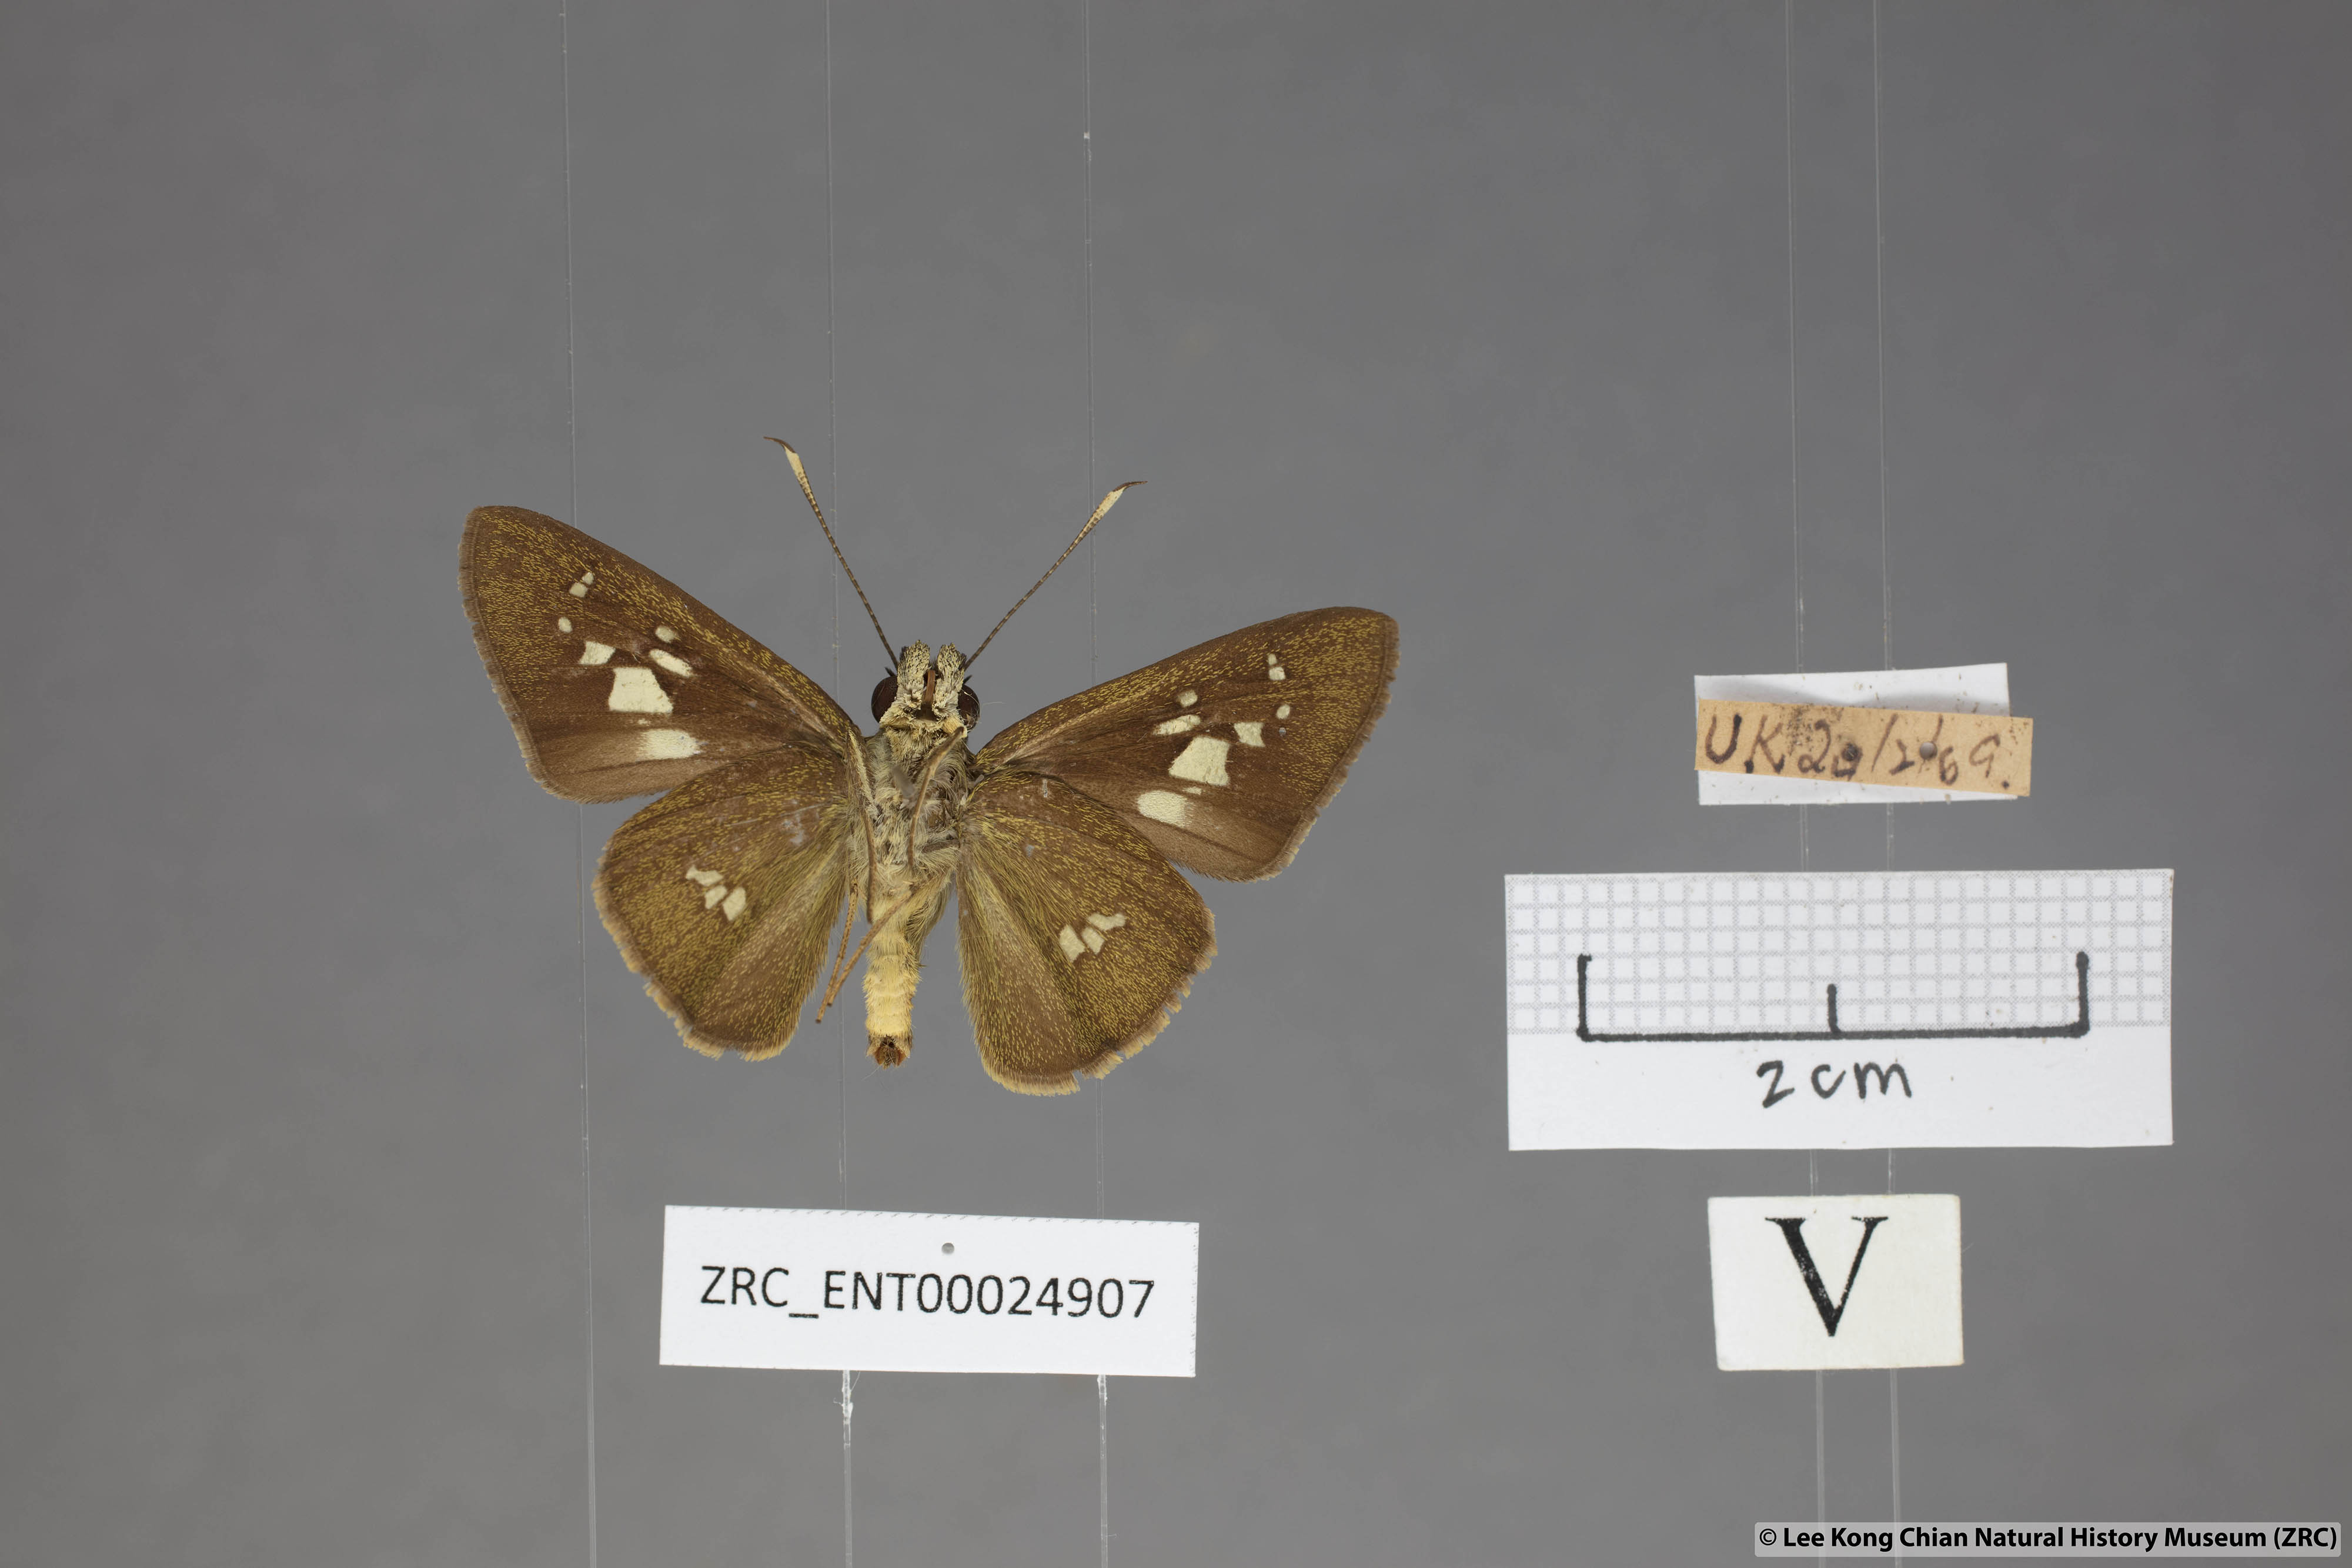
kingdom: Animalia
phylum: Arthropoda
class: Insecta
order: Lepidoptera
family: Hesperiidae
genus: Isma
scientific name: Isma umbrosa
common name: Large long-banded flitter
